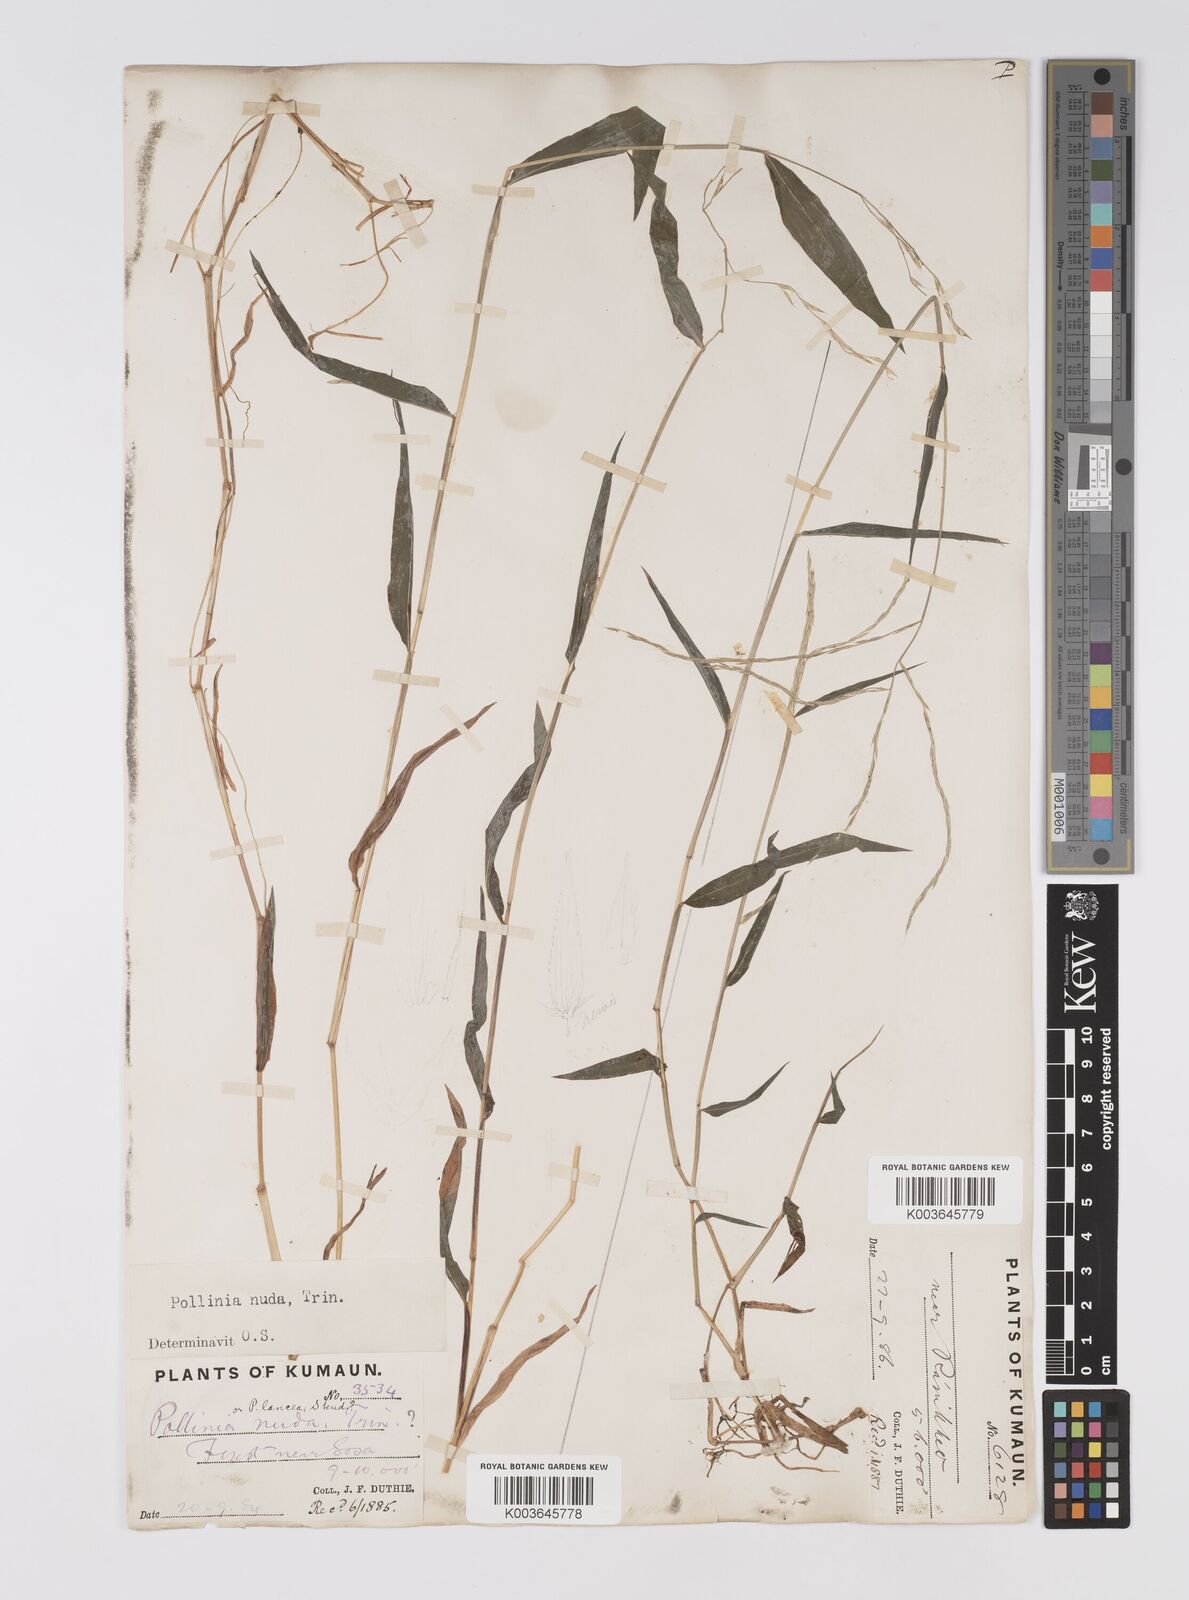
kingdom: Plantae
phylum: Tracheophyta
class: Liliopsida
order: Poales
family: Poaceae
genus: Microstegium
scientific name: Microstegium nudum
